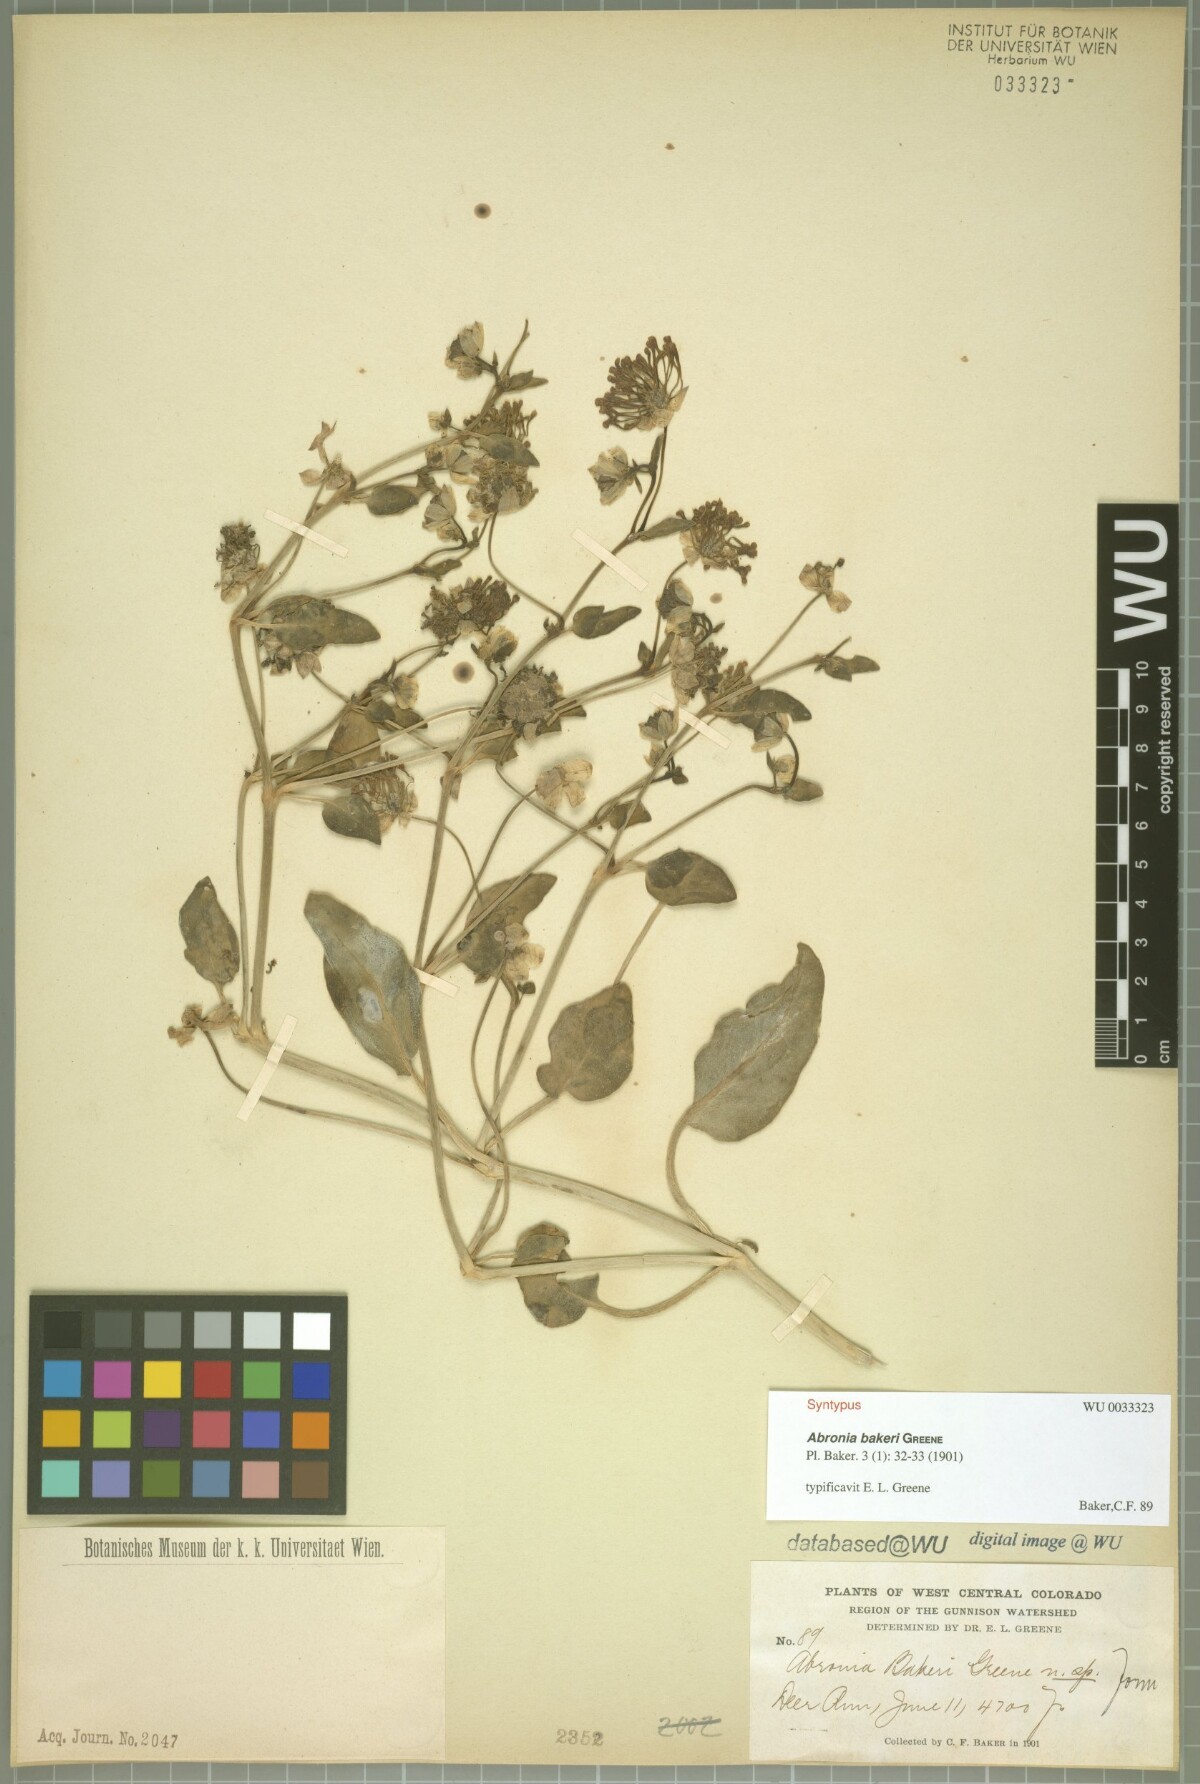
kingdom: Plantae
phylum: Tracheophyta
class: Magnoliopsida
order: Caryophyllales
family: Nyctaginaceae
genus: Abronia
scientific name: Abronia elliptica
